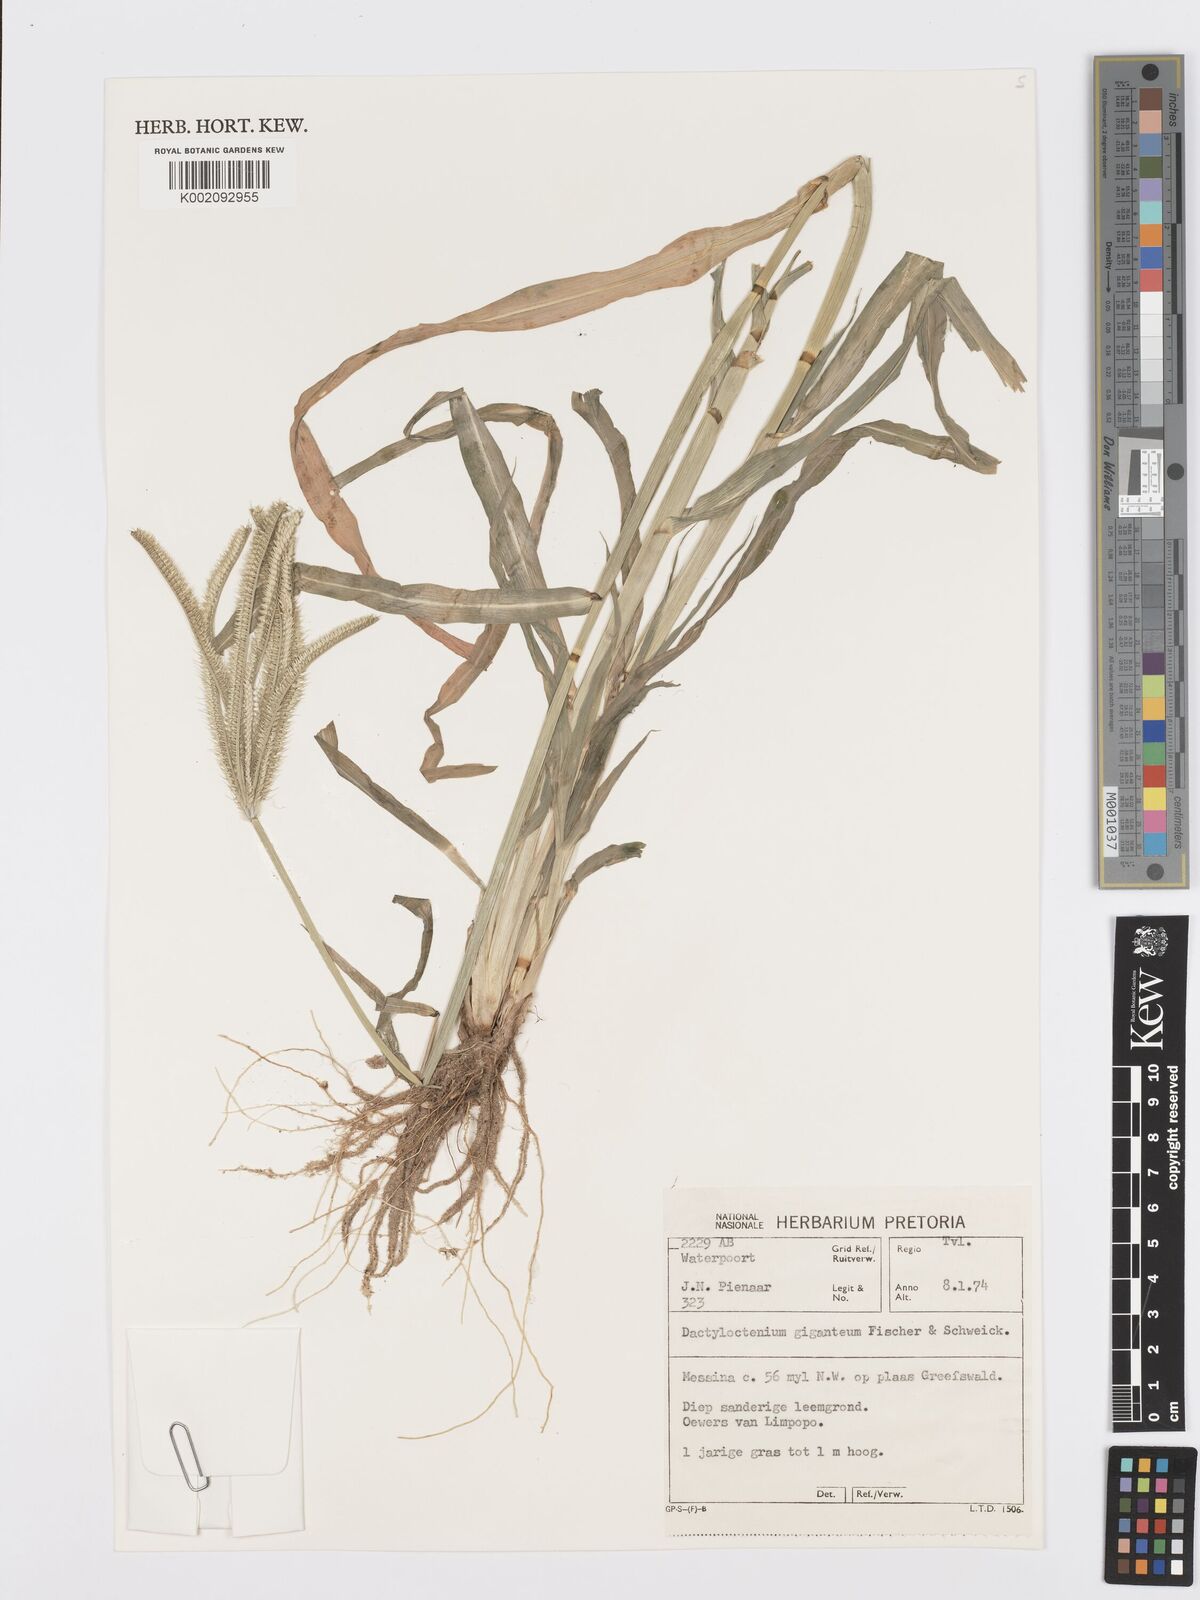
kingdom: Plantae
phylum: Tracheophyta
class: Liliopsida
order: Poales
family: Poaceae
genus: Dactyloctenium
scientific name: Dactyloctenium giganteum
